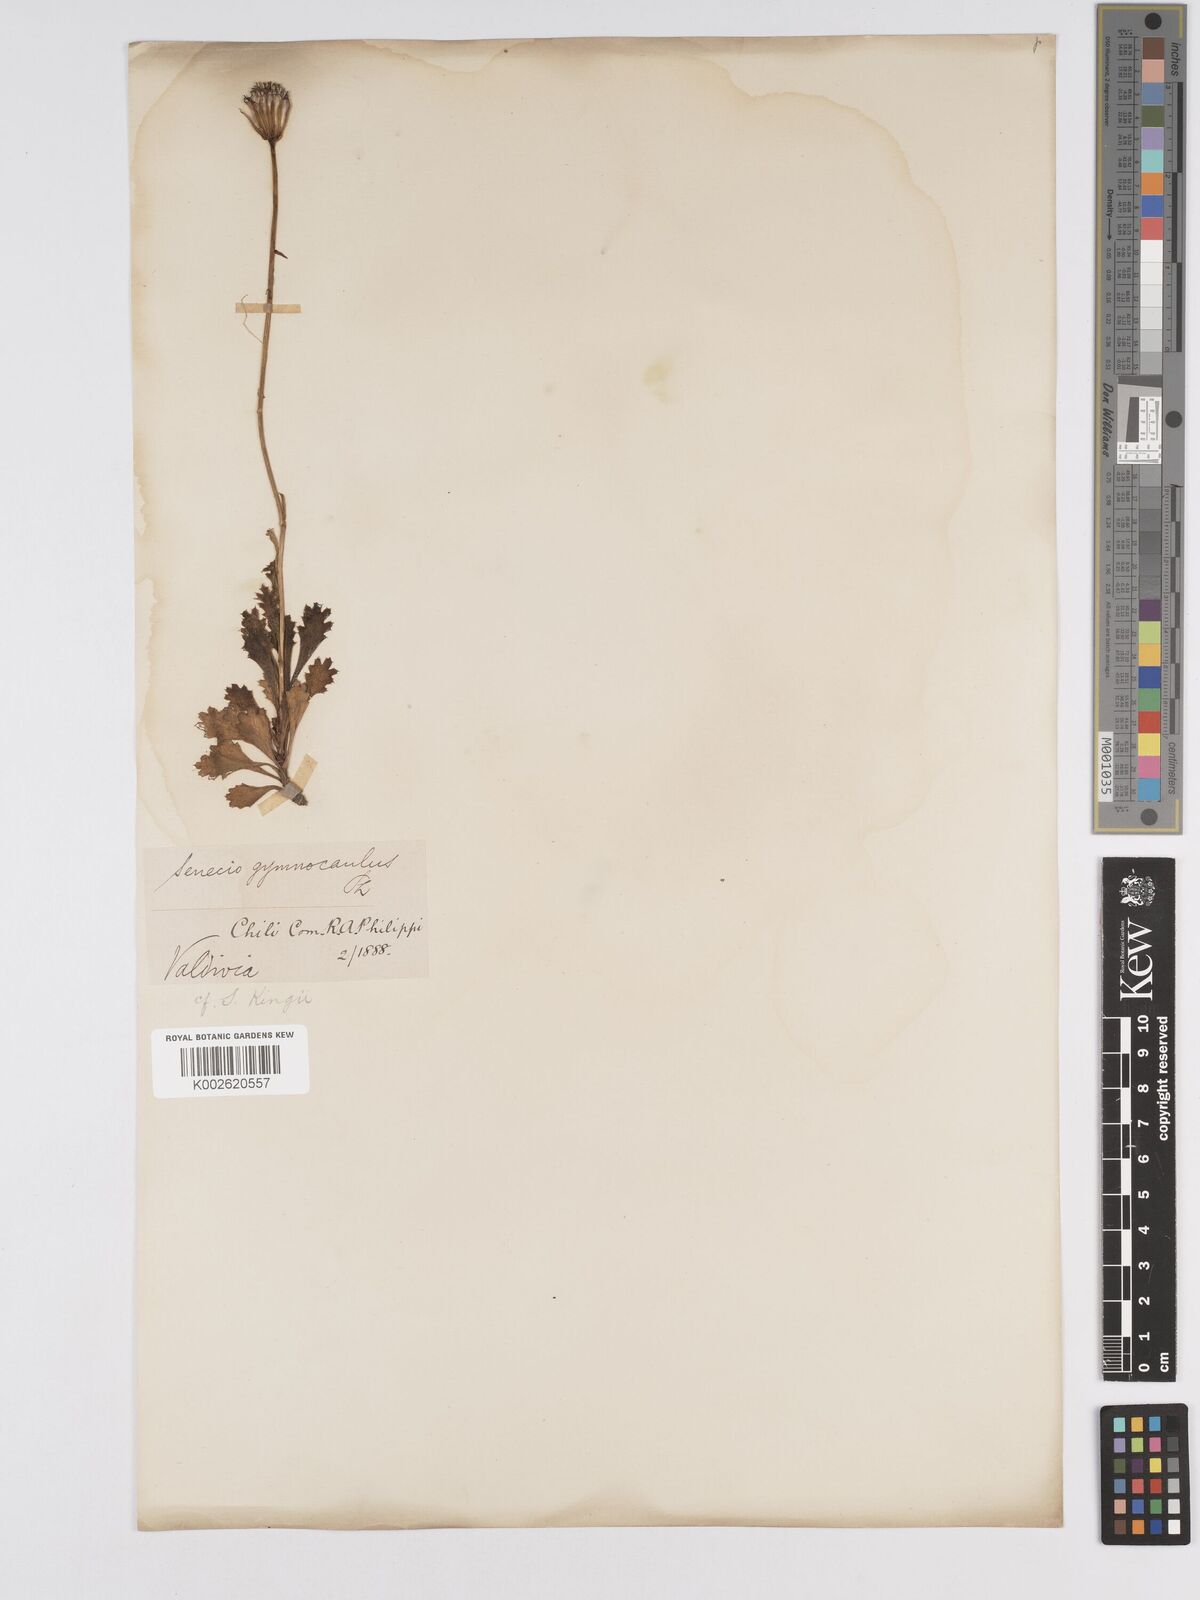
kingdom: Plantae
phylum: Tracheophyta
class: Magnoliopsida
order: Asterales
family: Asteraceae
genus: Senecio
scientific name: Senecio kingii
